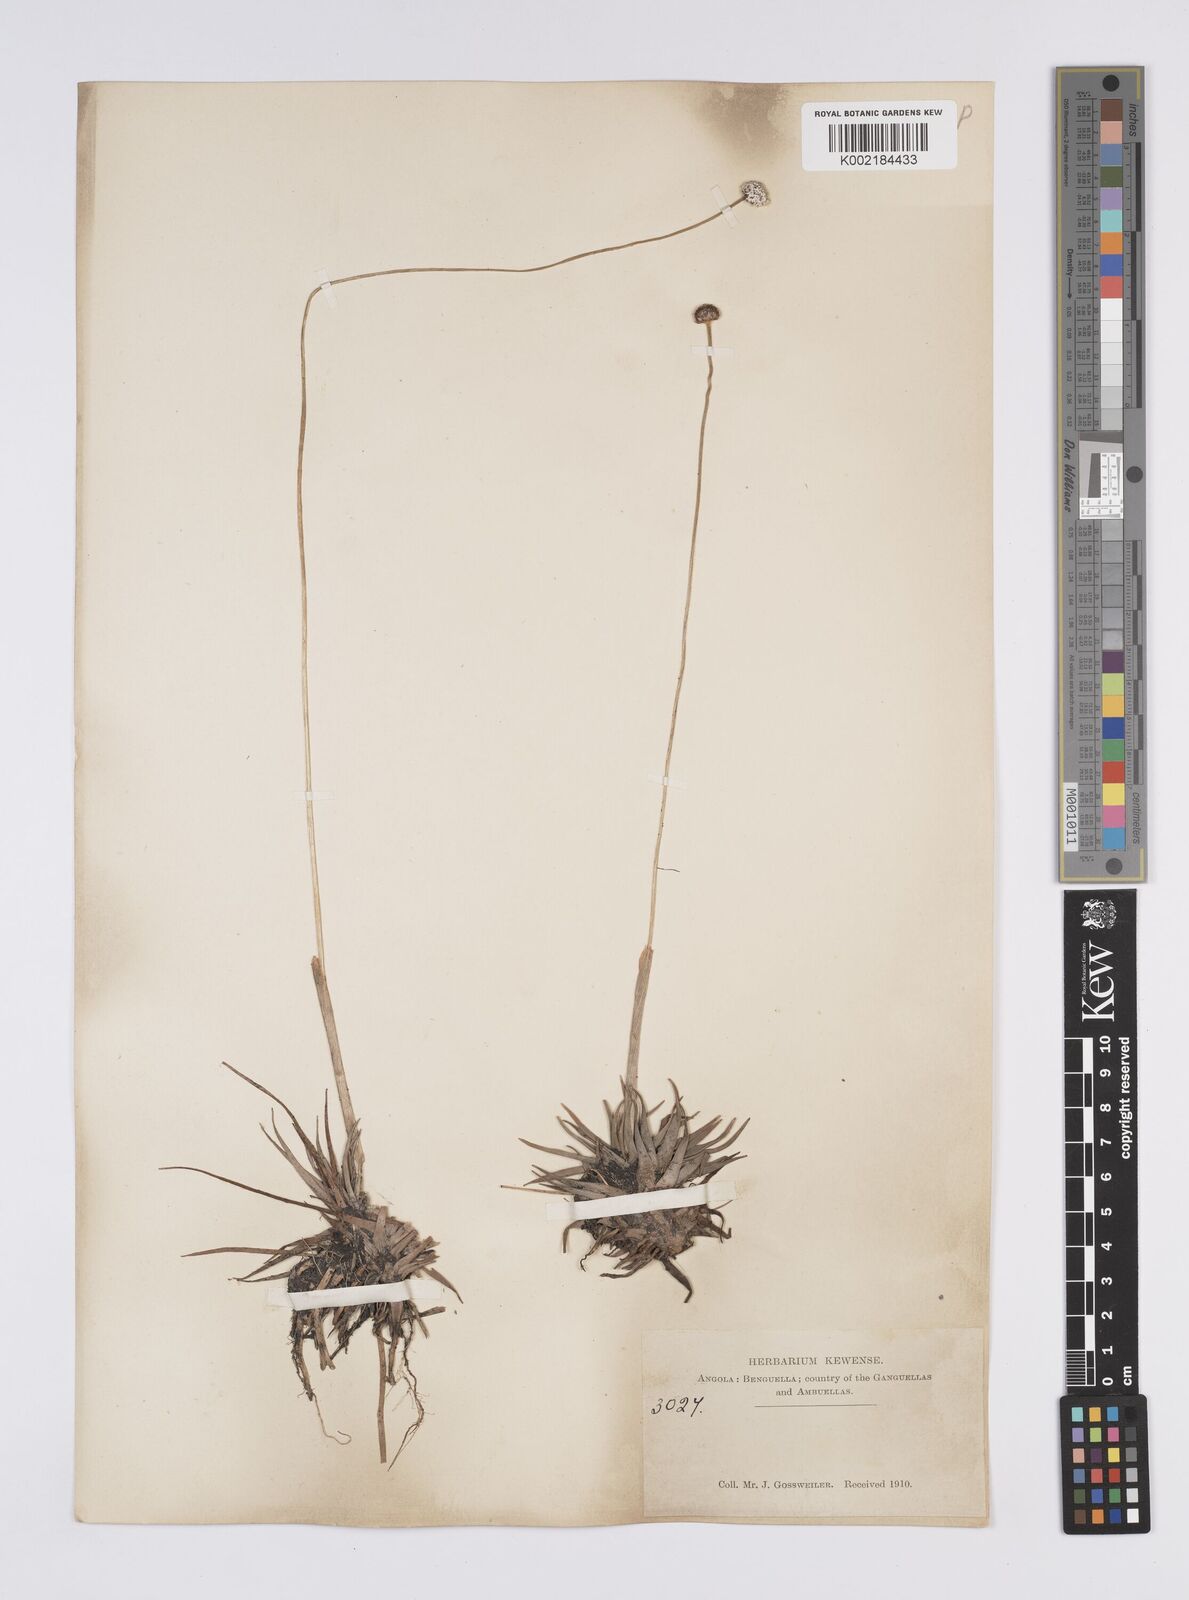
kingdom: Plantae
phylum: Tracheophyta
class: Liliopsida
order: Poales
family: Eriocaulaceae
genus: Eriocaulon
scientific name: Eriocaulon
